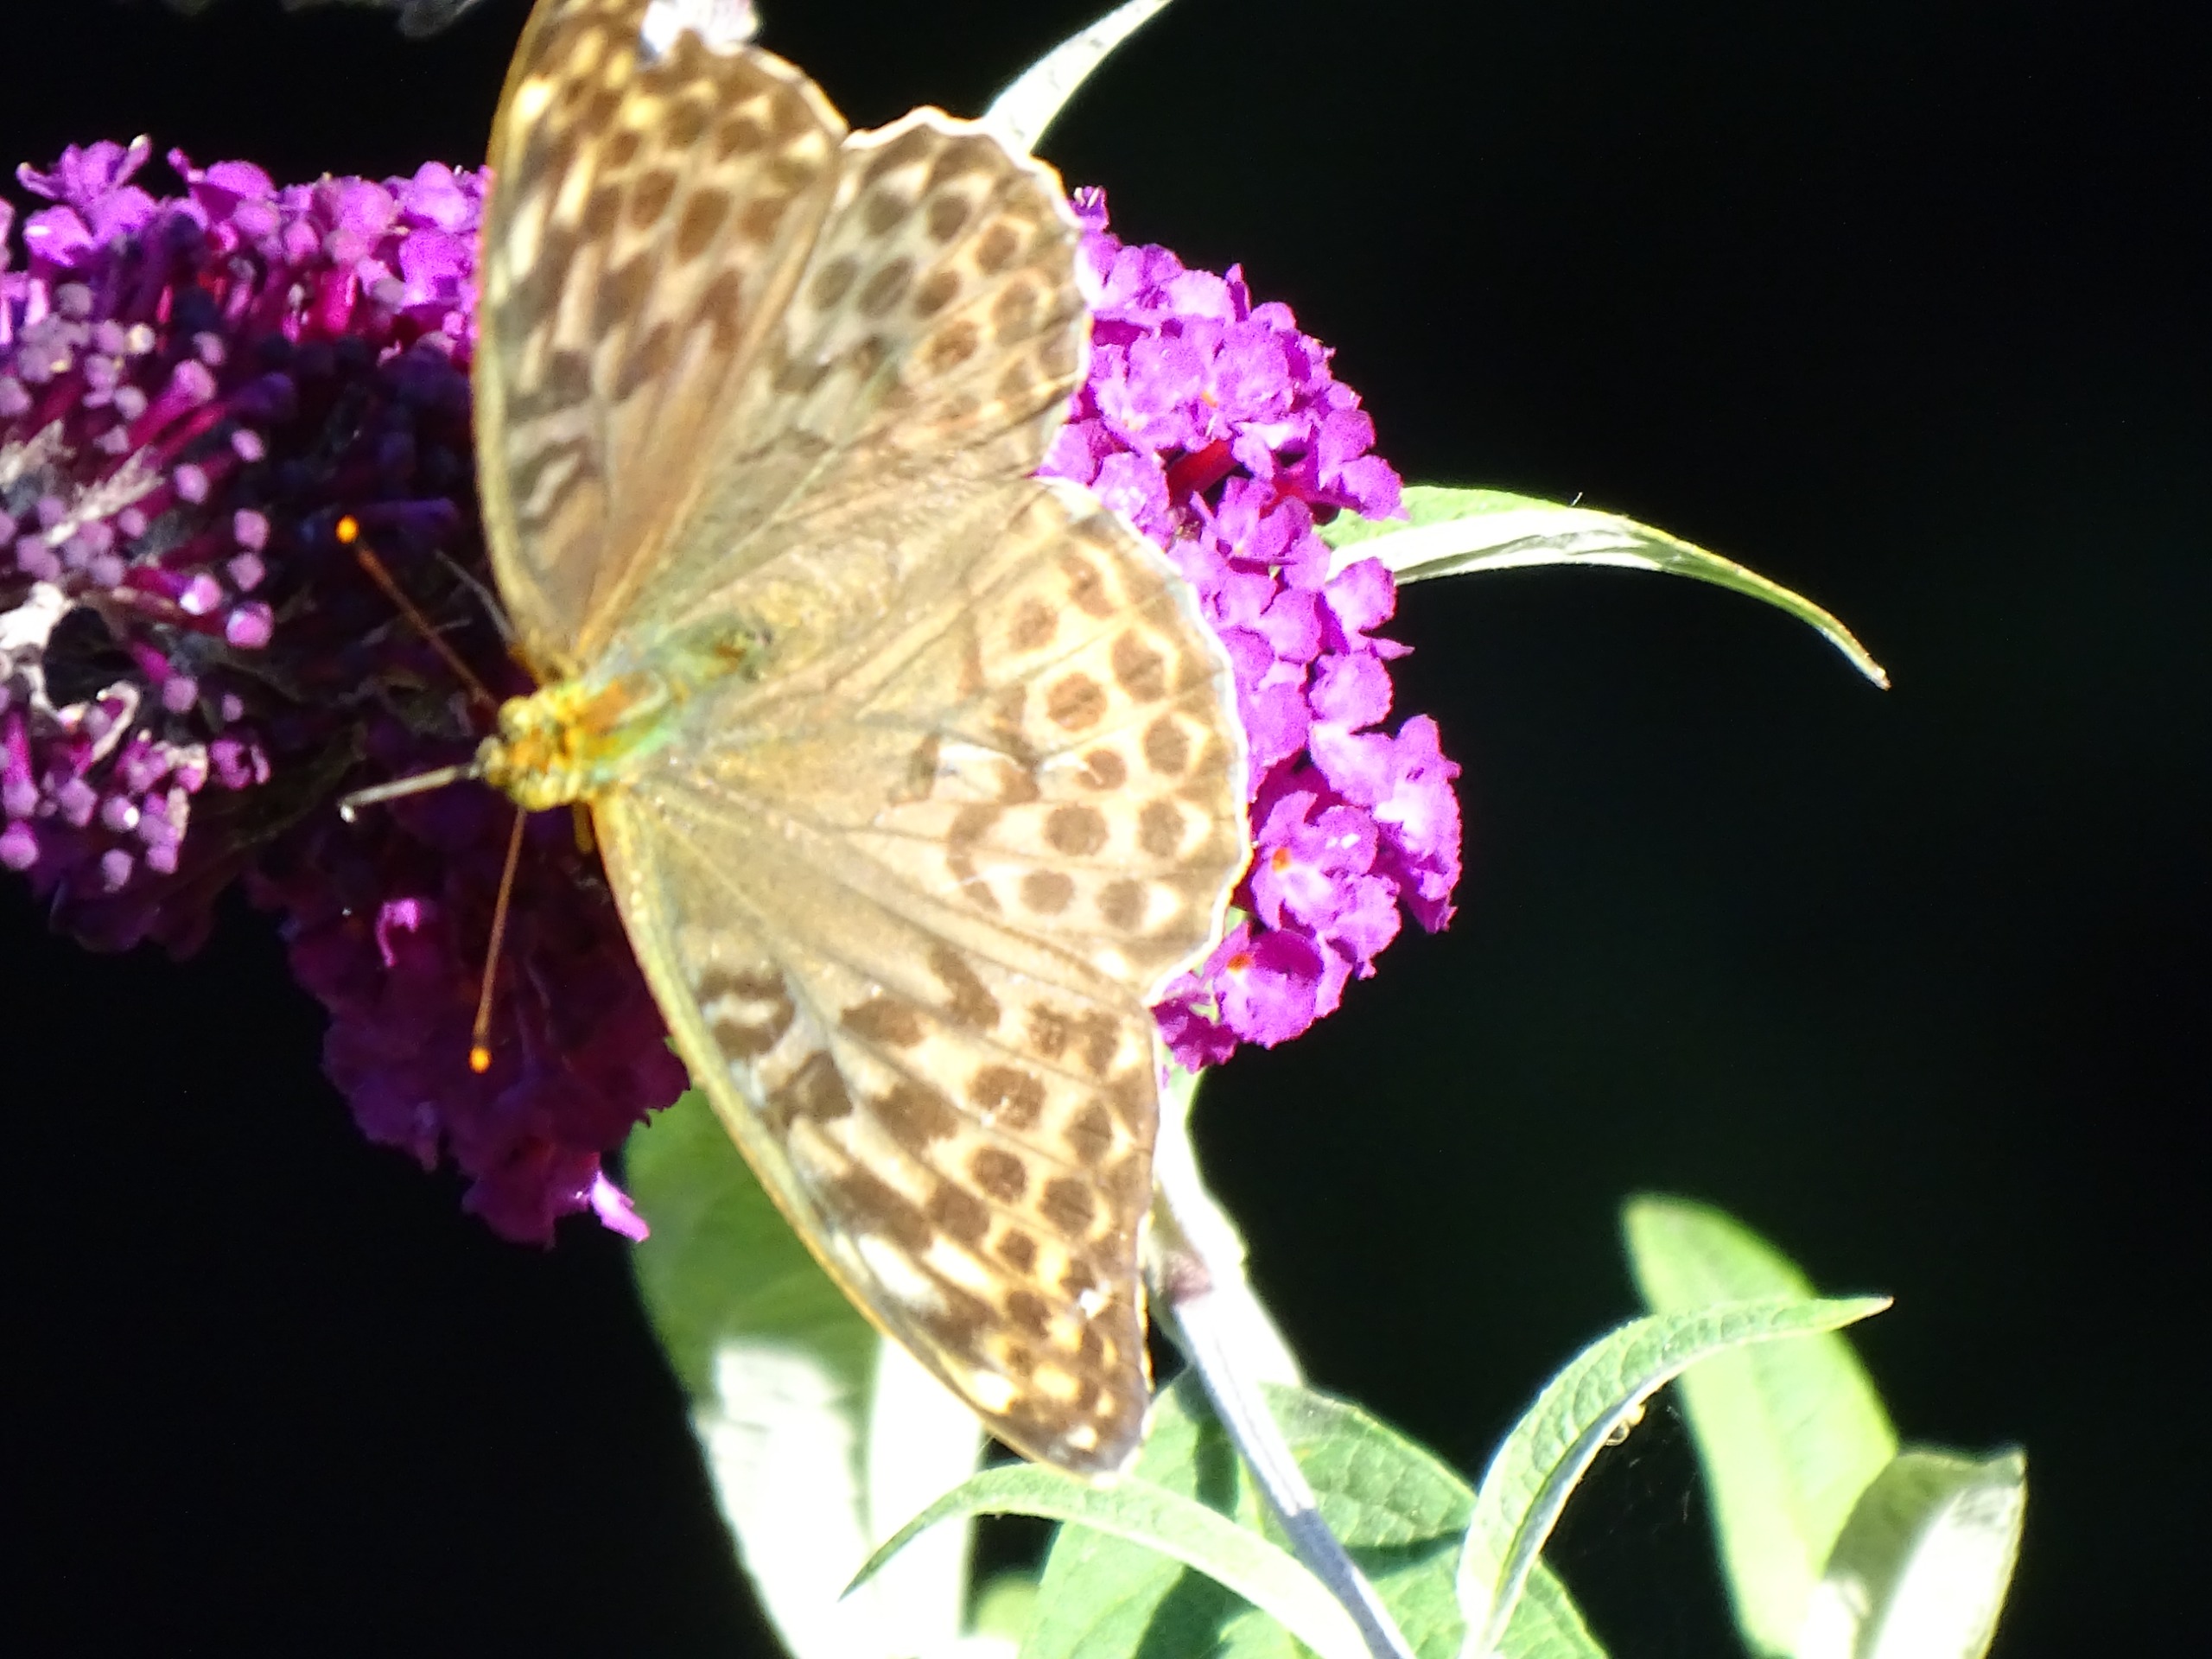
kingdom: Animalia
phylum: Arthropoda
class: Insecta
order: Lepidoptera
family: Nymphalidae
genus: Argynnis
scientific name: Argynnis paphia
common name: Kejserkåbe
